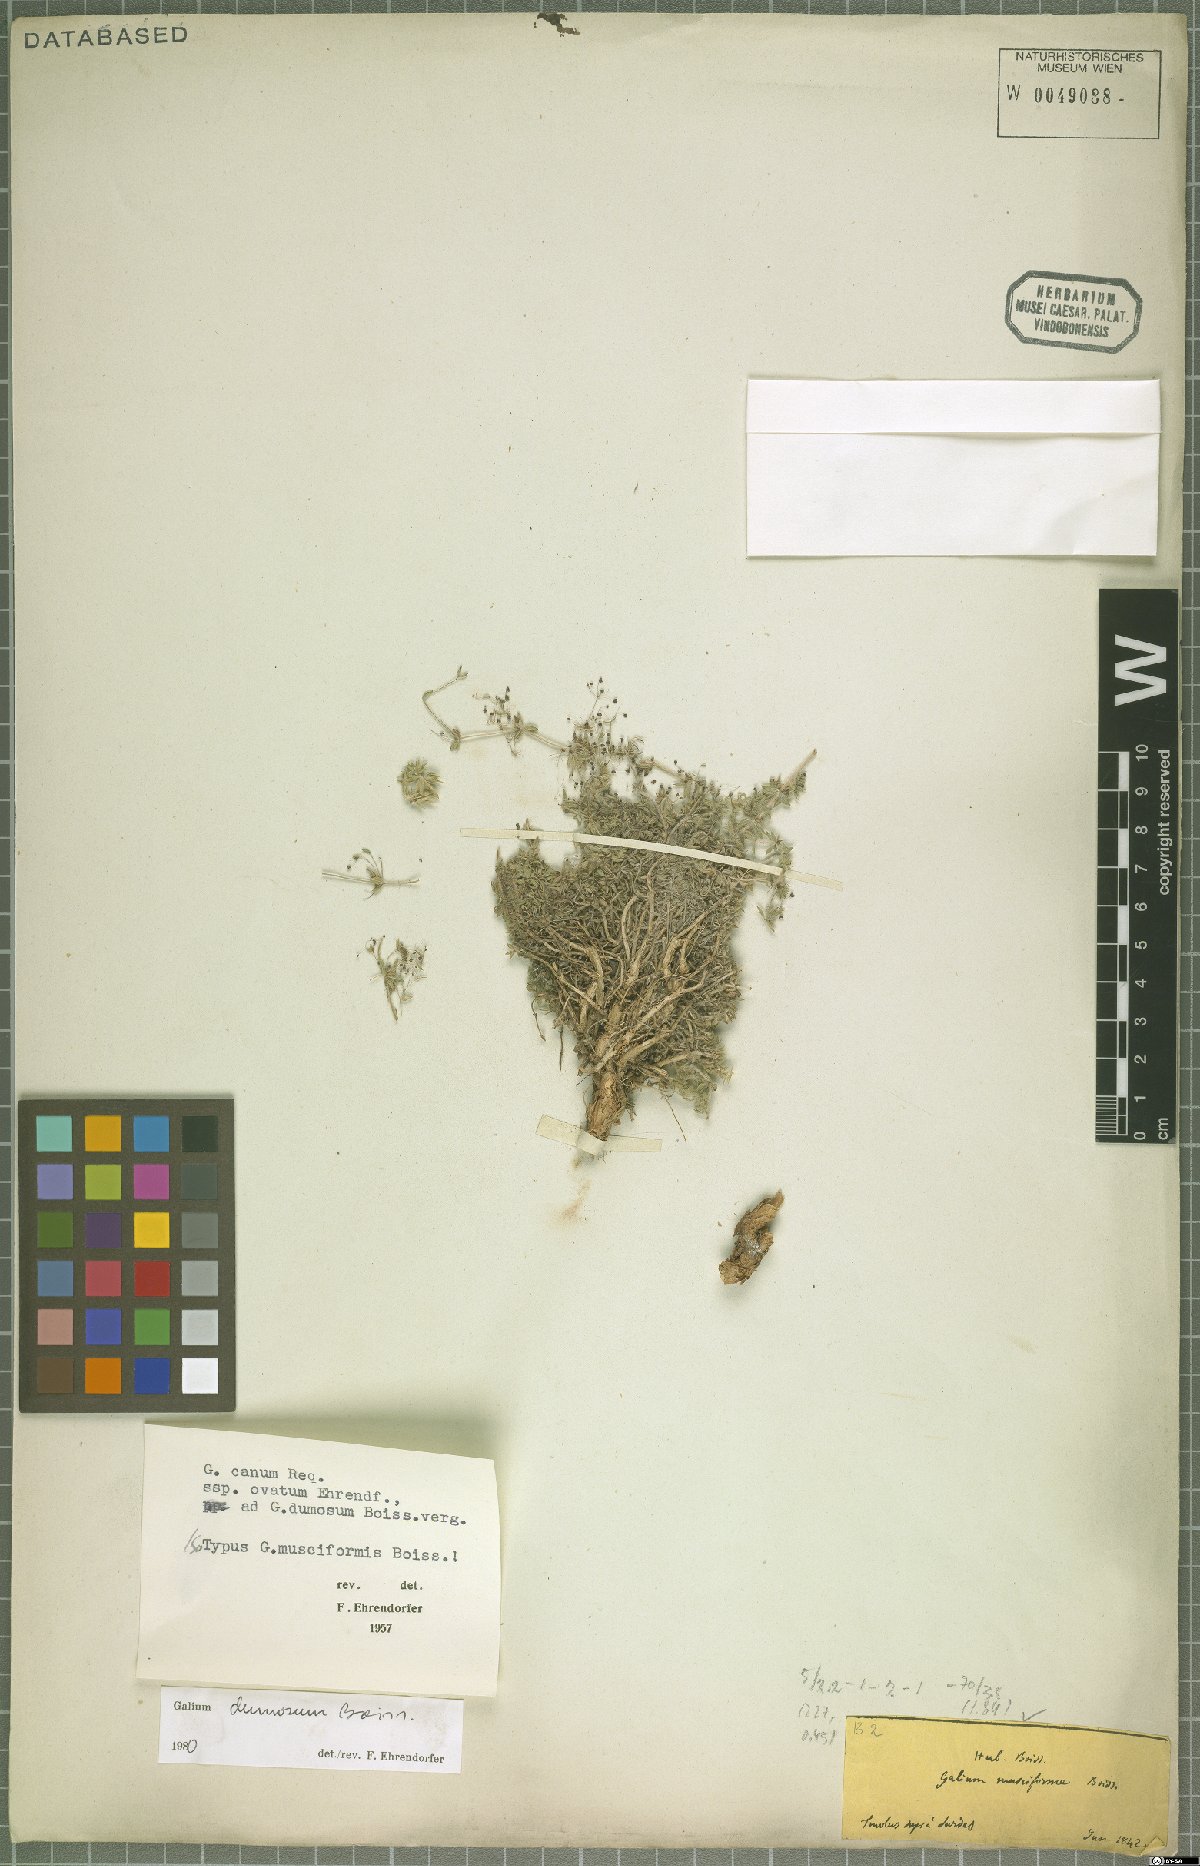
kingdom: Plantae
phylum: Tracheophyta
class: Magnoliopsida
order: Gentianales
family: Rubiaceae
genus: Galium
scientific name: Galium dumosum
